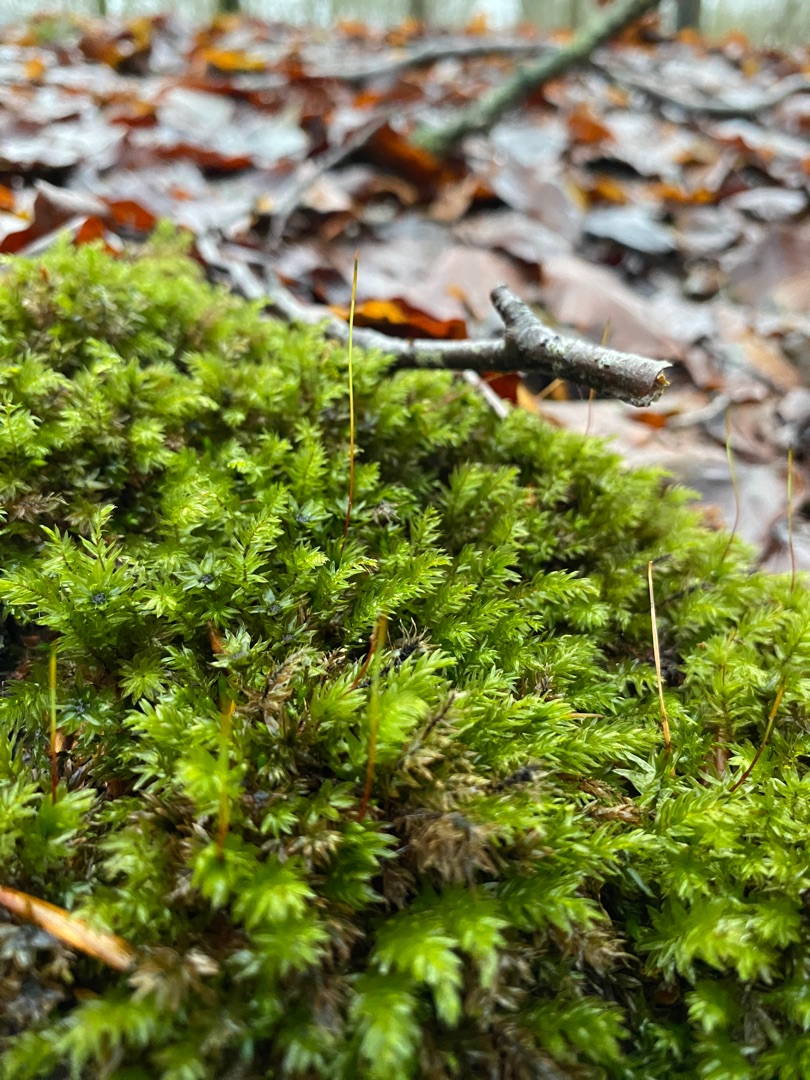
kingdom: Plantae
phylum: Bryophyta
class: Bryopsida
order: Bryales
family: Mniaceae
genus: Mnium
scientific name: Mnium hornum
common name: Brunfiltet stjernemos
